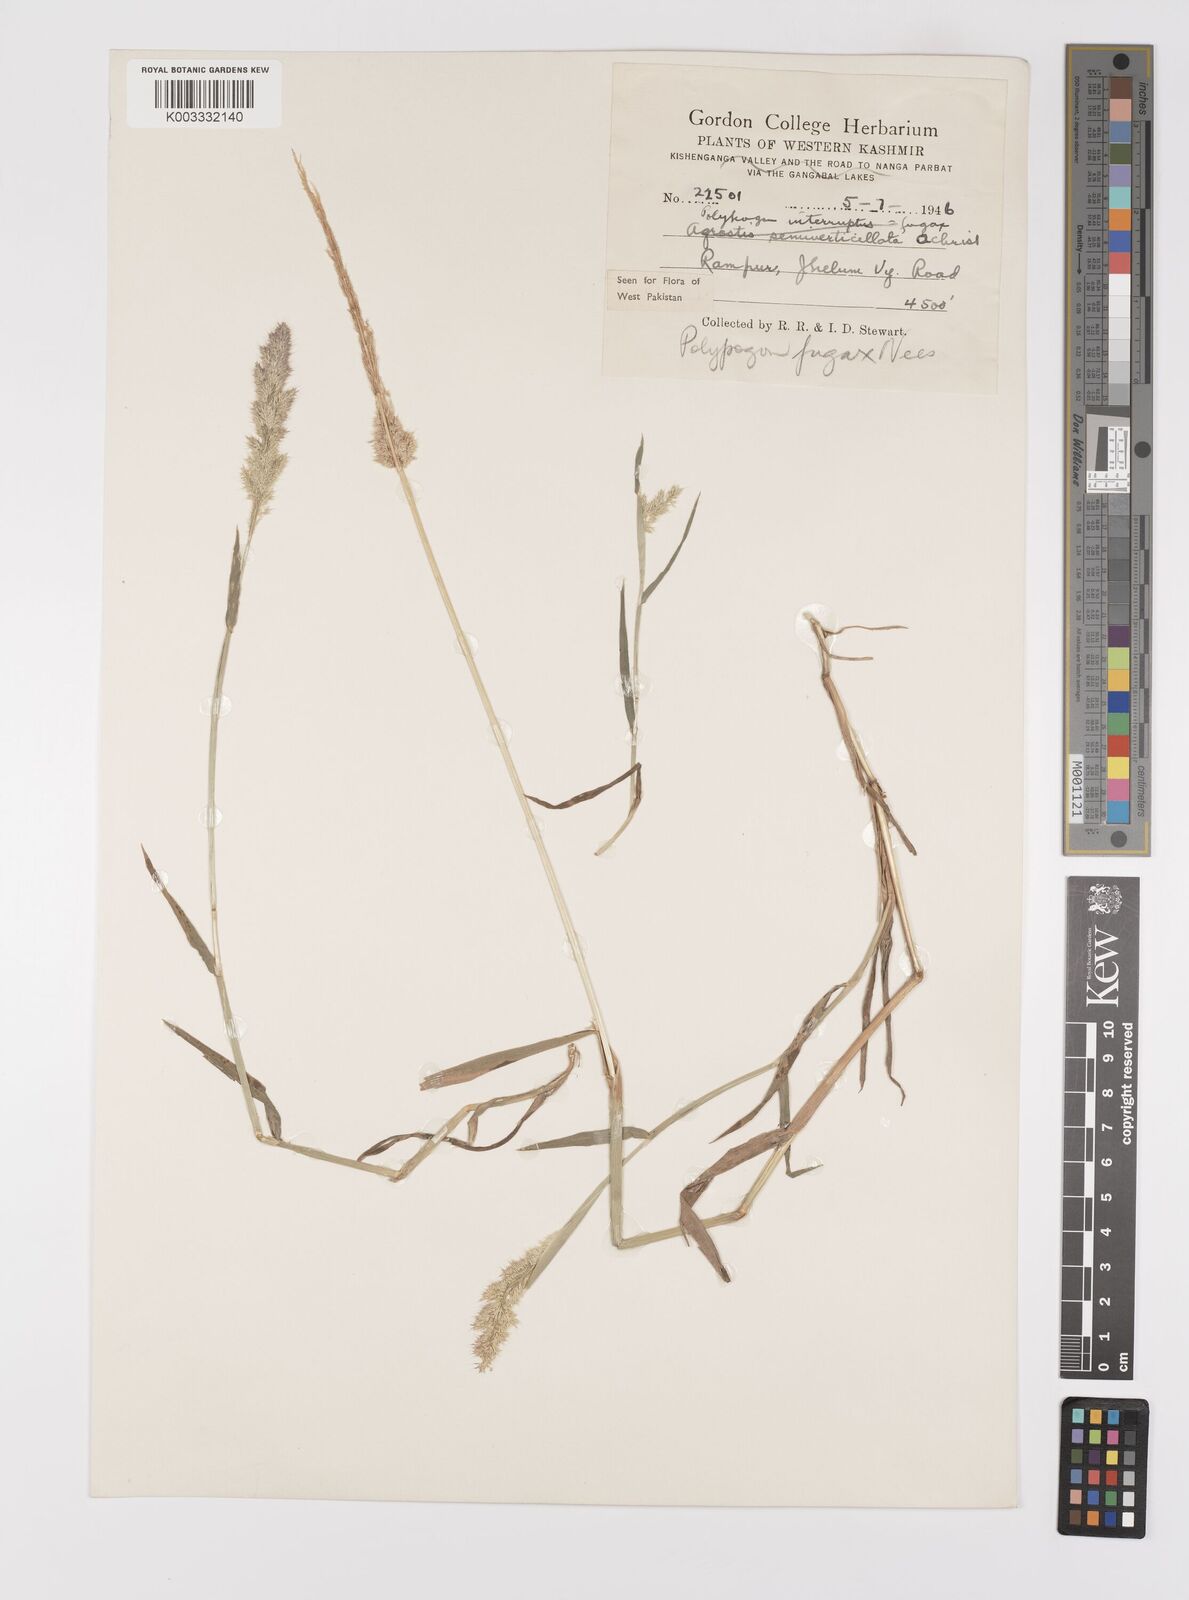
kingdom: Plantae
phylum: Tracheophyta
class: Liliopsida
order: Poales
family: Poaceae
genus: Polypogon
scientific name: Polypogon fugax
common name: Asia minor bluegrass
